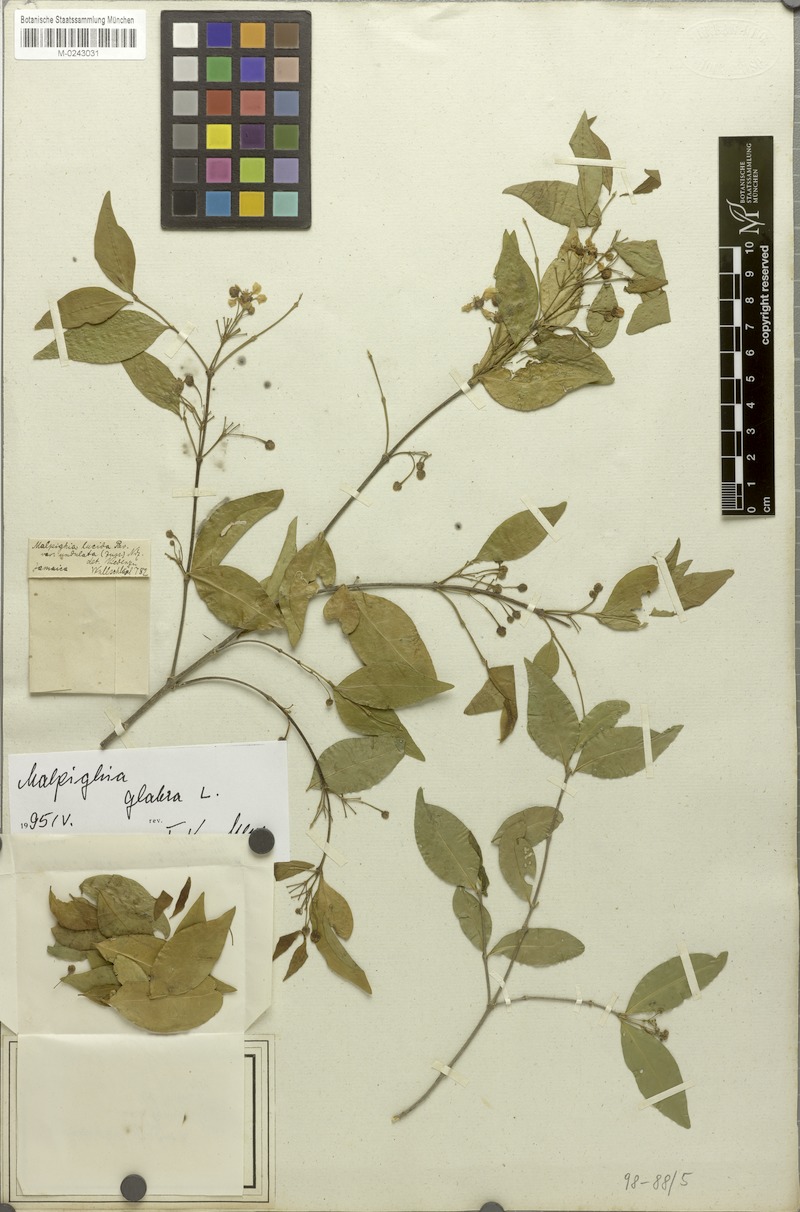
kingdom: Plantae
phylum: Tracheophyta
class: Magnoliopsida
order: Malpighiales
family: Malpighiaceae
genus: Malpighia
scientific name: Malpighia glabra
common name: Barbados cherry
